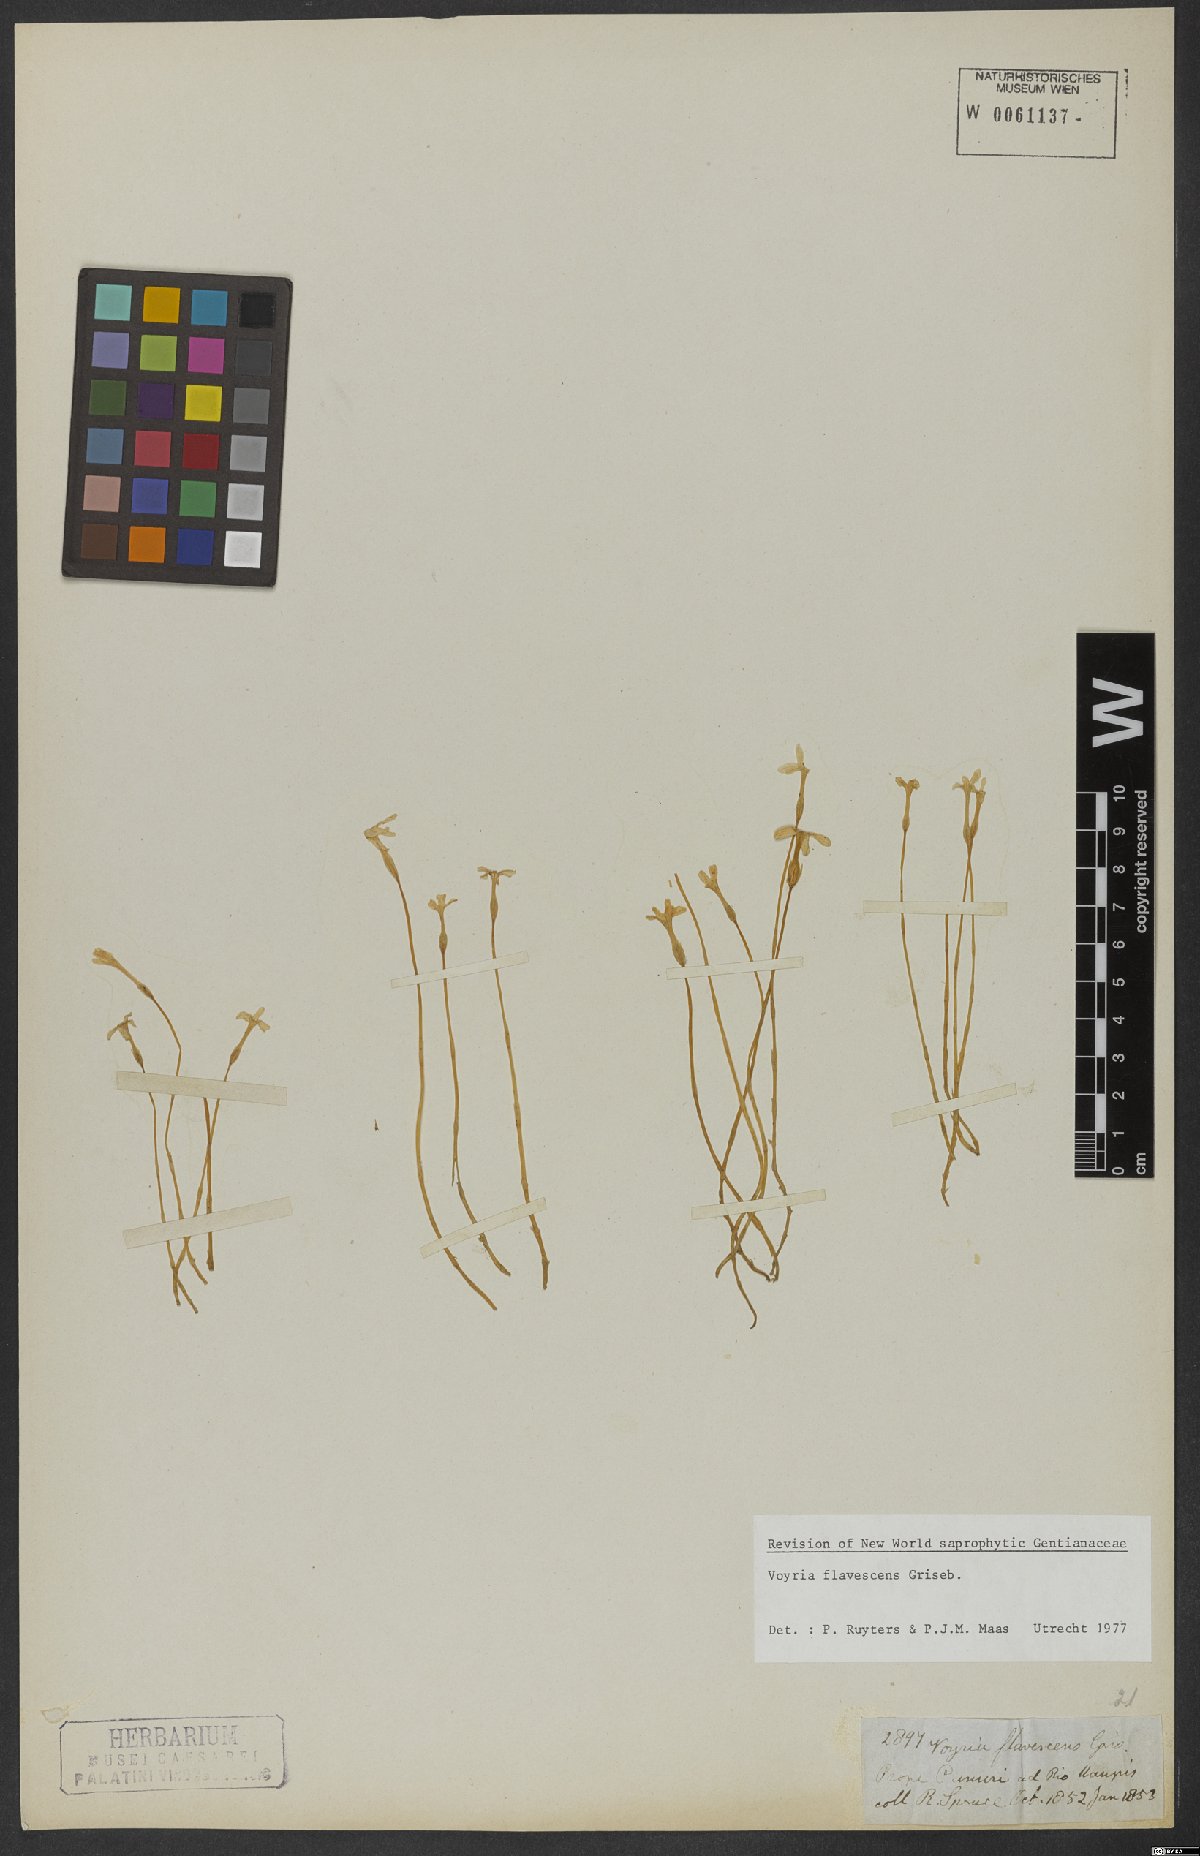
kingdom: Plantae
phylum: Tracheophyta
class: Magnoliopsida
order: Gentianales
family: Gentianaceae
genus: Voyria
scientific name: Voyria flavescens
